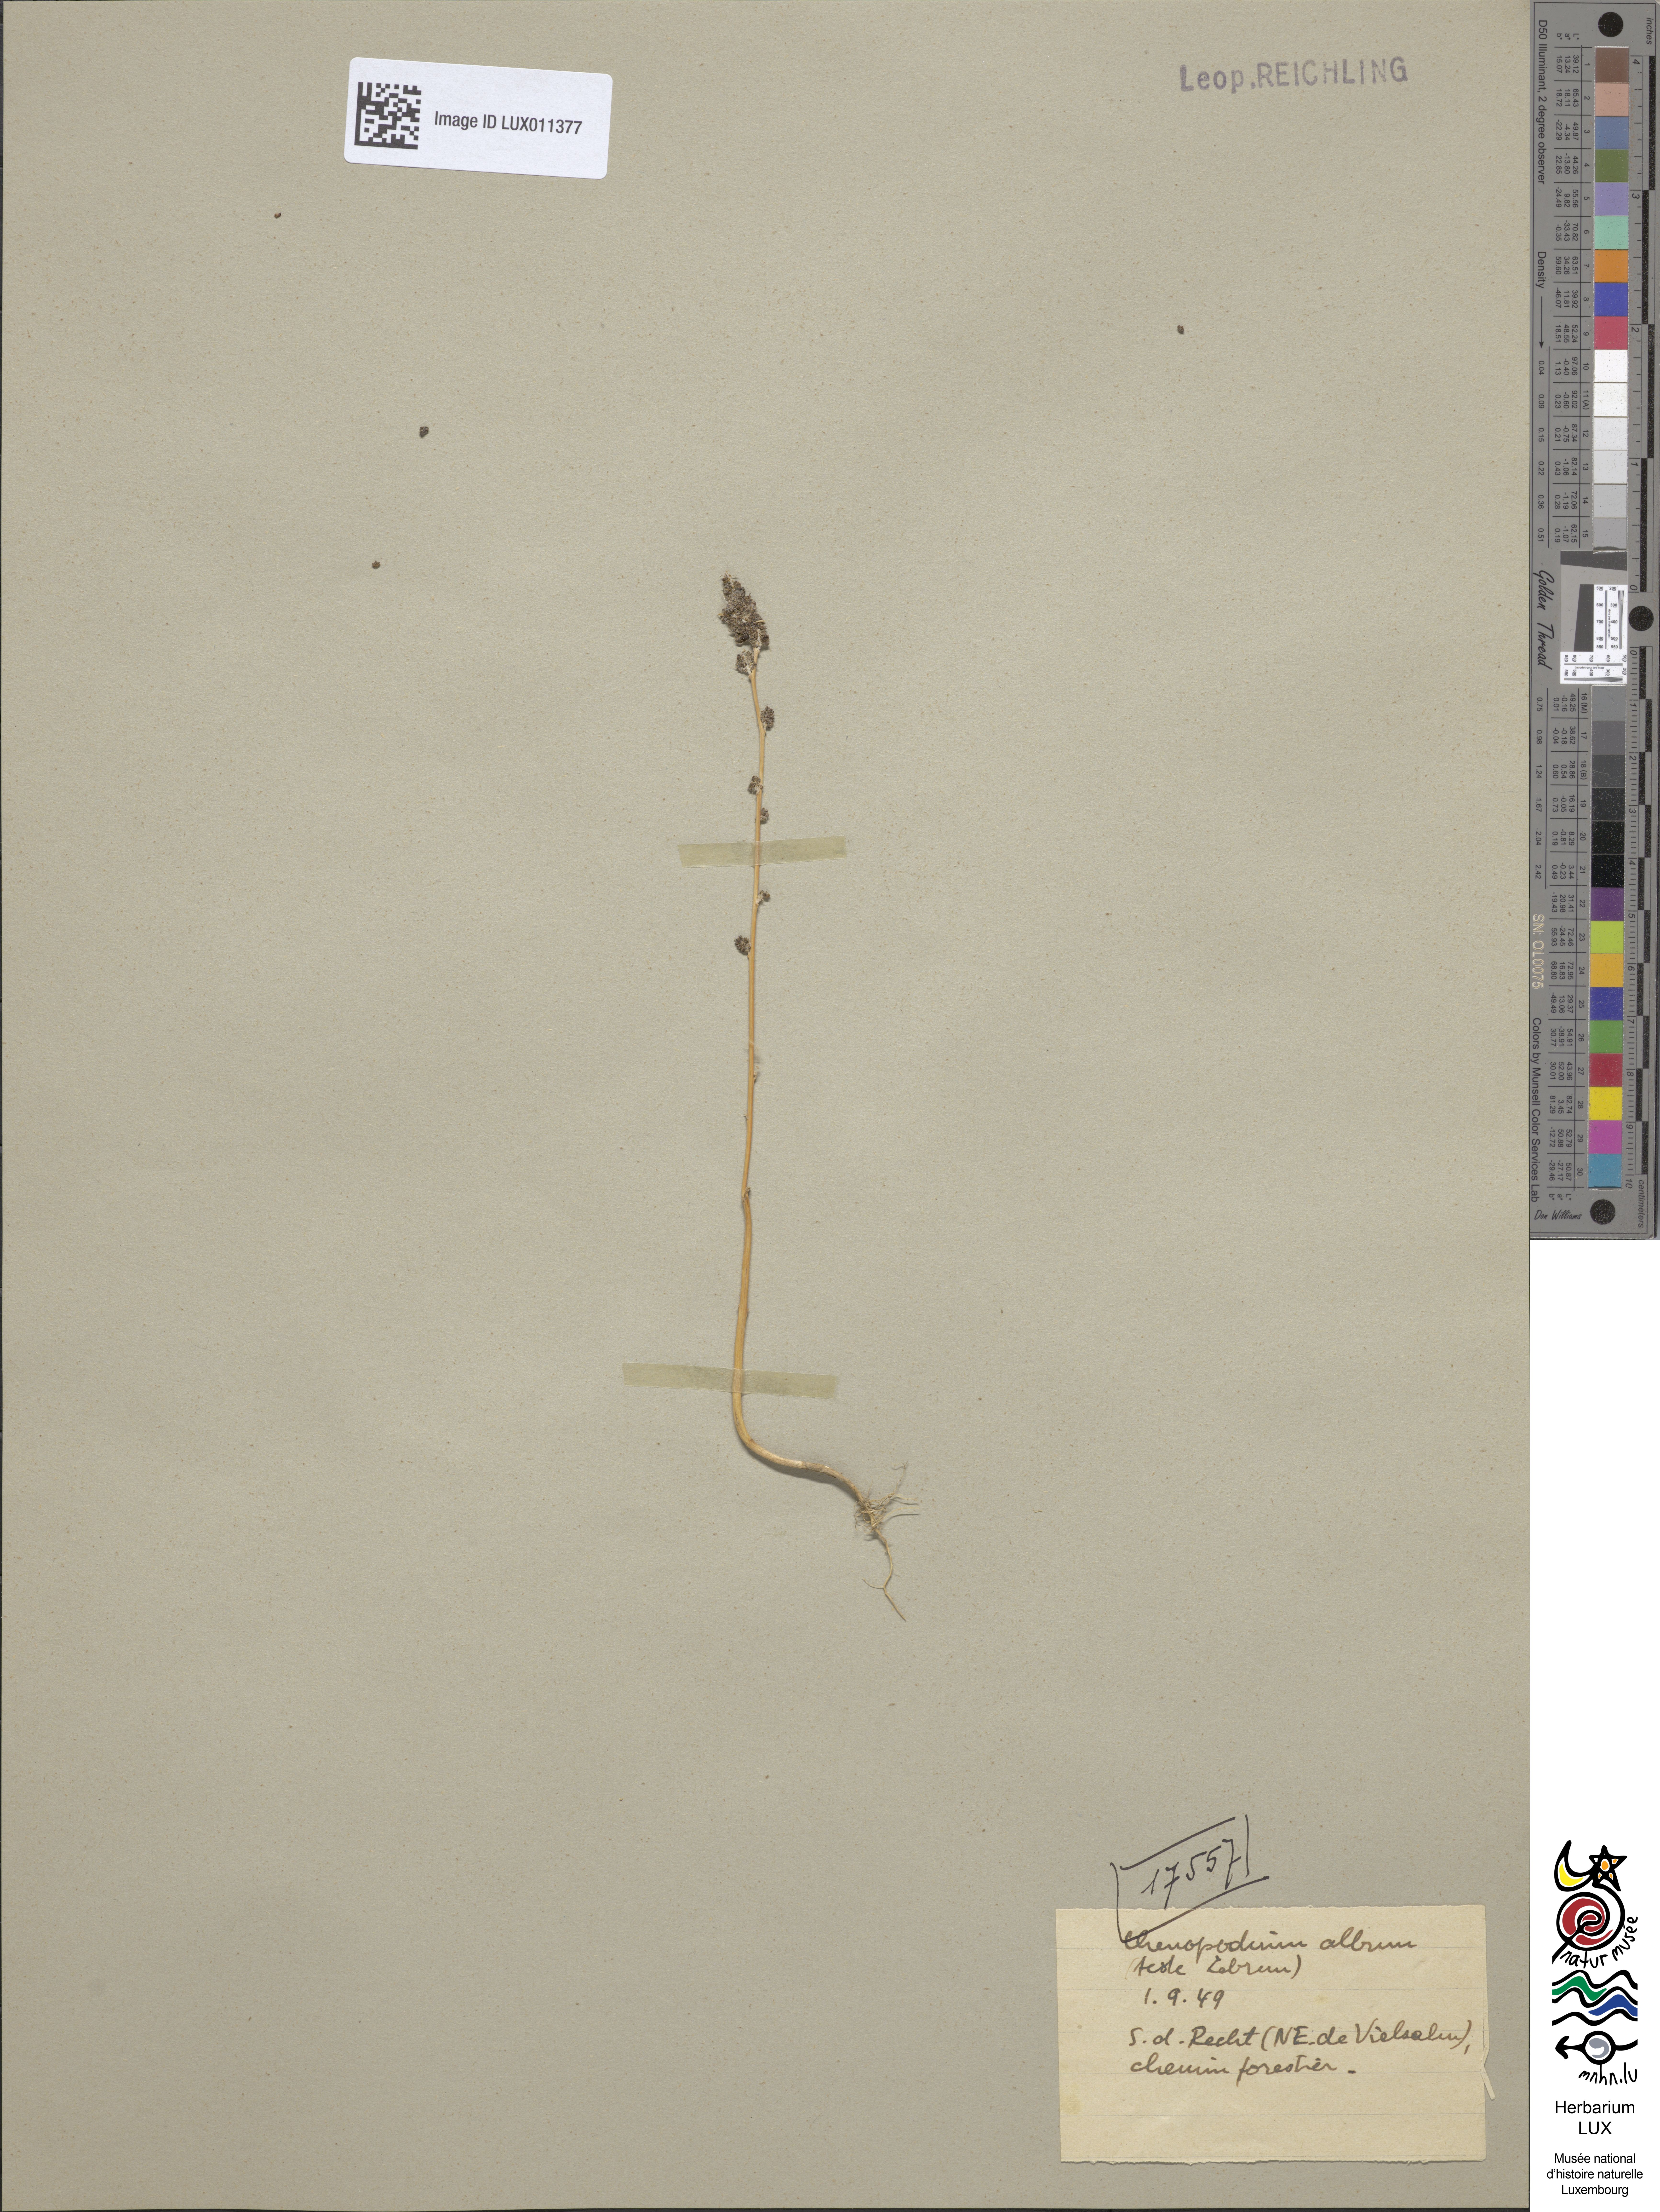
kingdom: Plantae
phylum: Tracheophyta
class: Magnoliopsida
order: Caryophyllales
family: Amaranthaceae
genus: Chenopodium
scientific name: Chenopodium album
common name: Fat-hen
